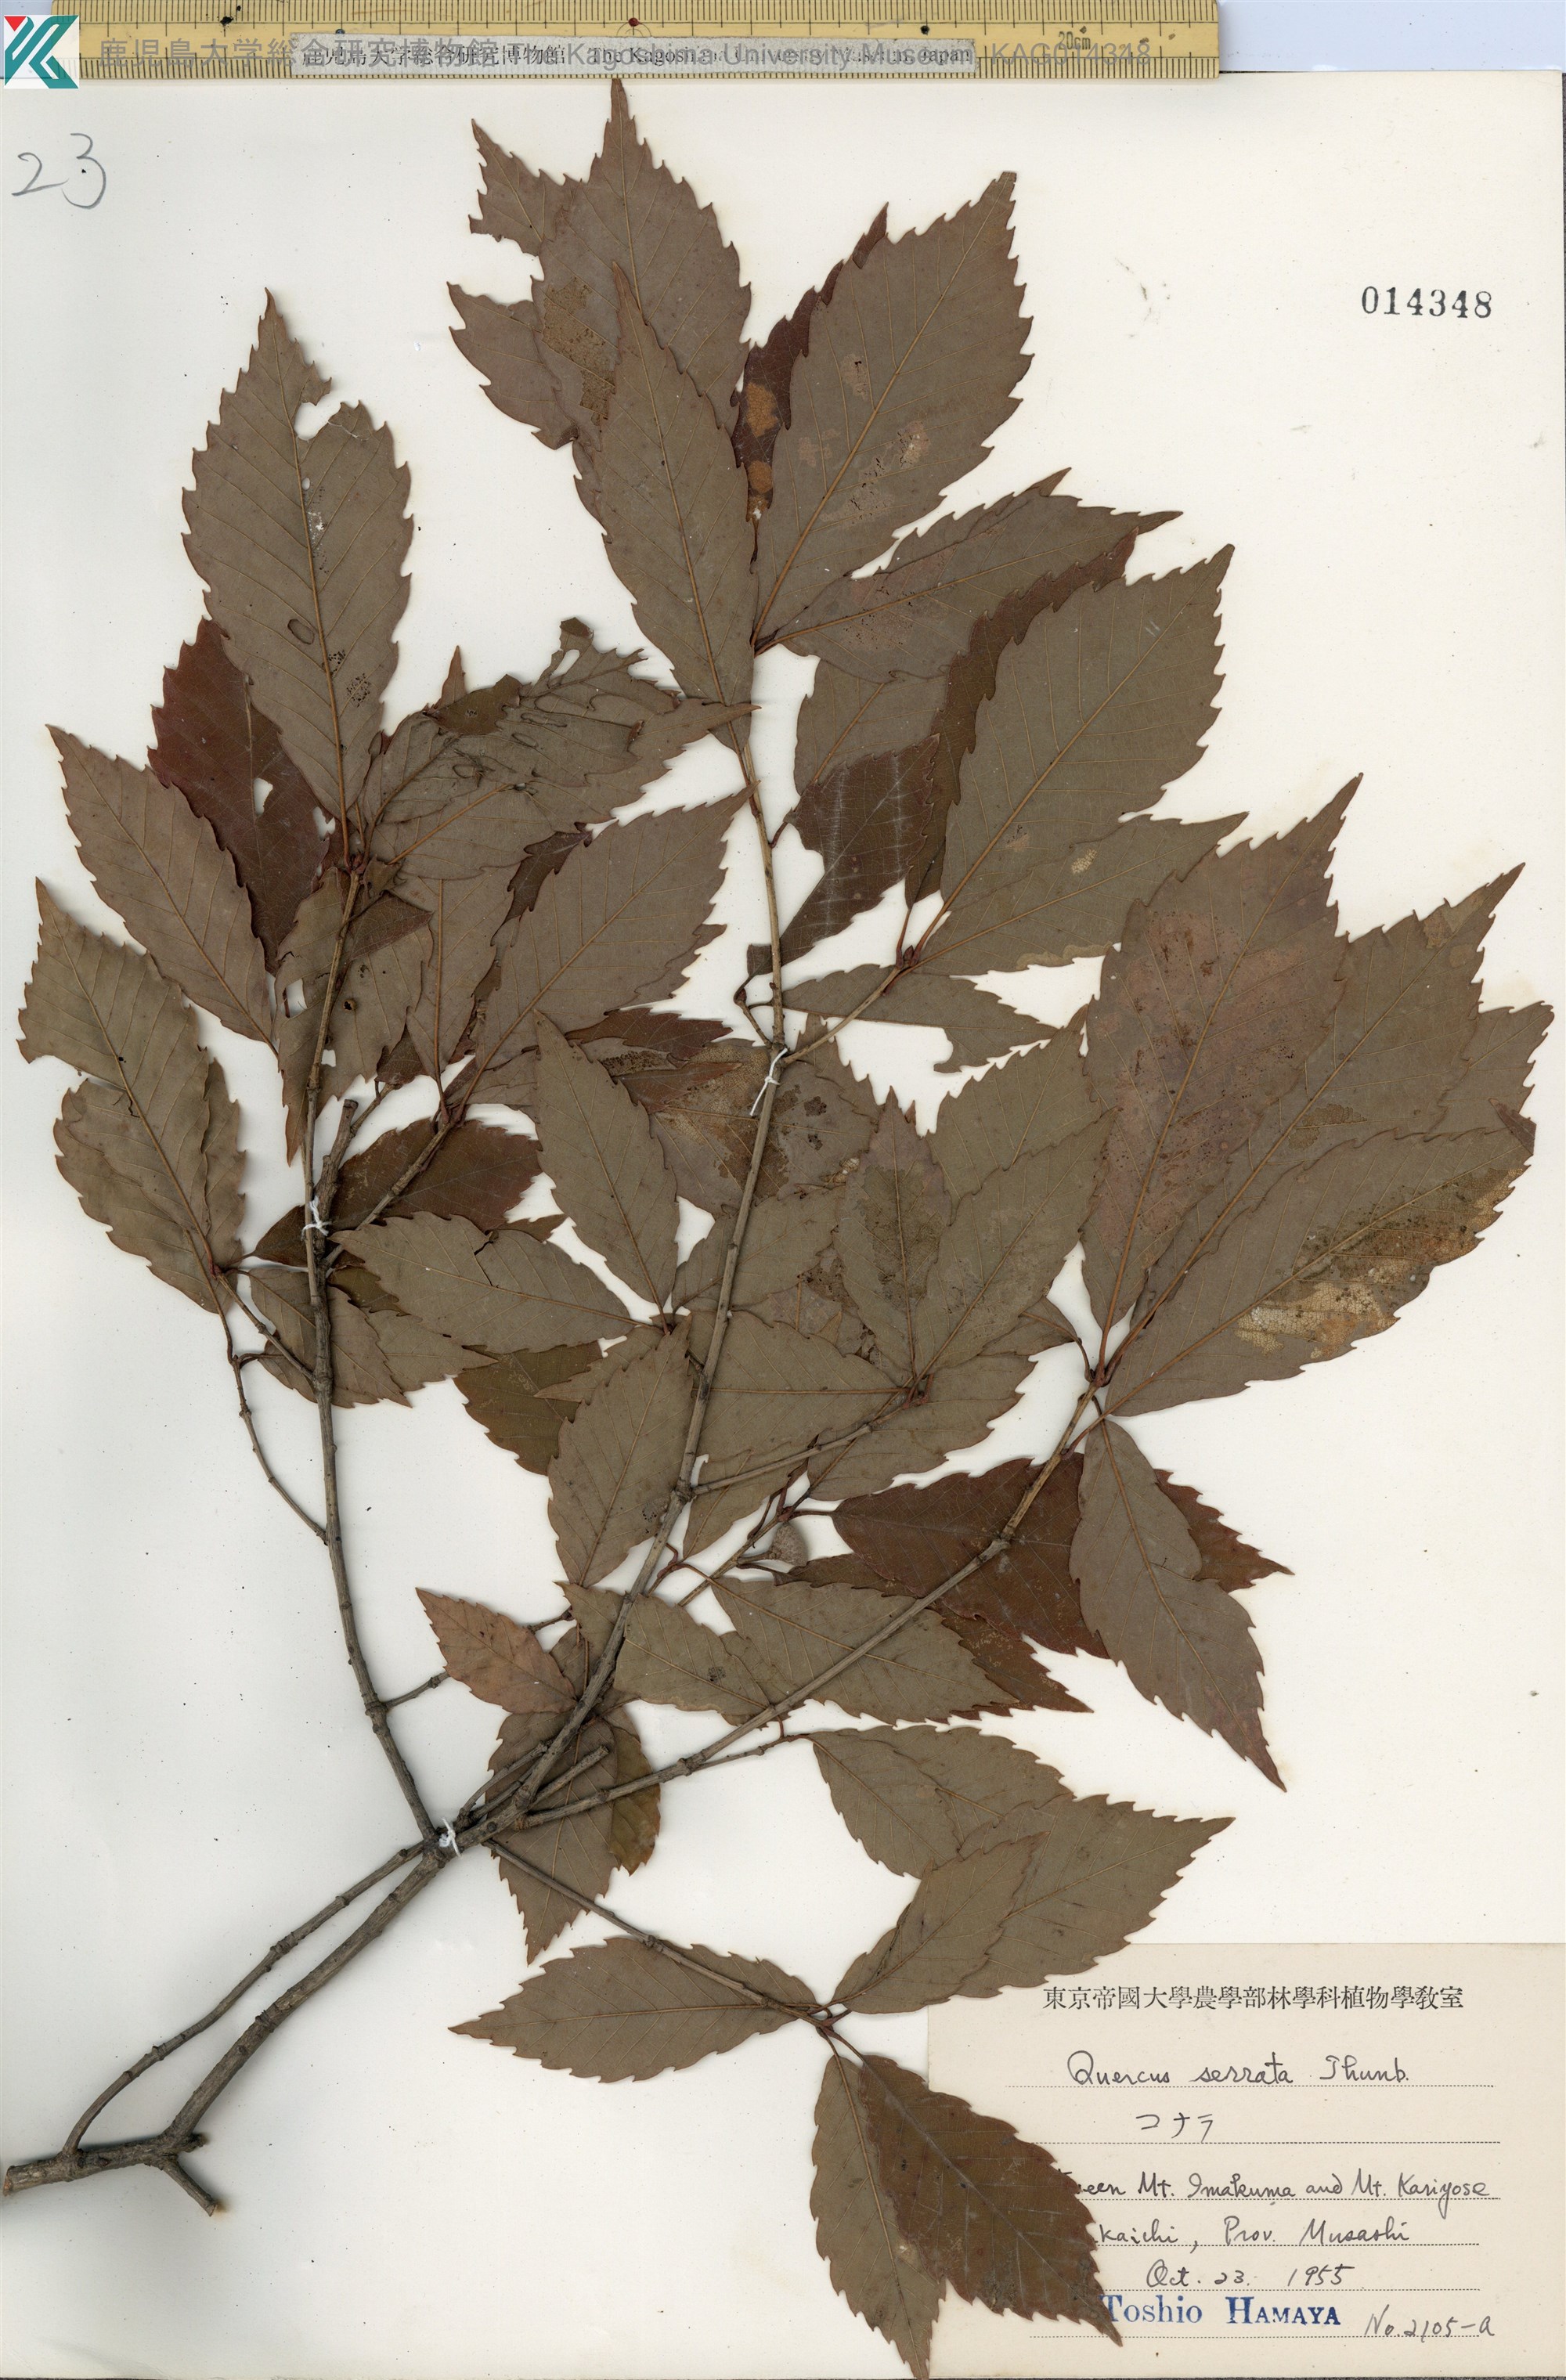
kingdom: Plantae
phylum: Tracheophyta
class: Magnoliopsida
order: Fagales
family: Fagaceae
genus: Quercus
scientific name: Quercus serrata
